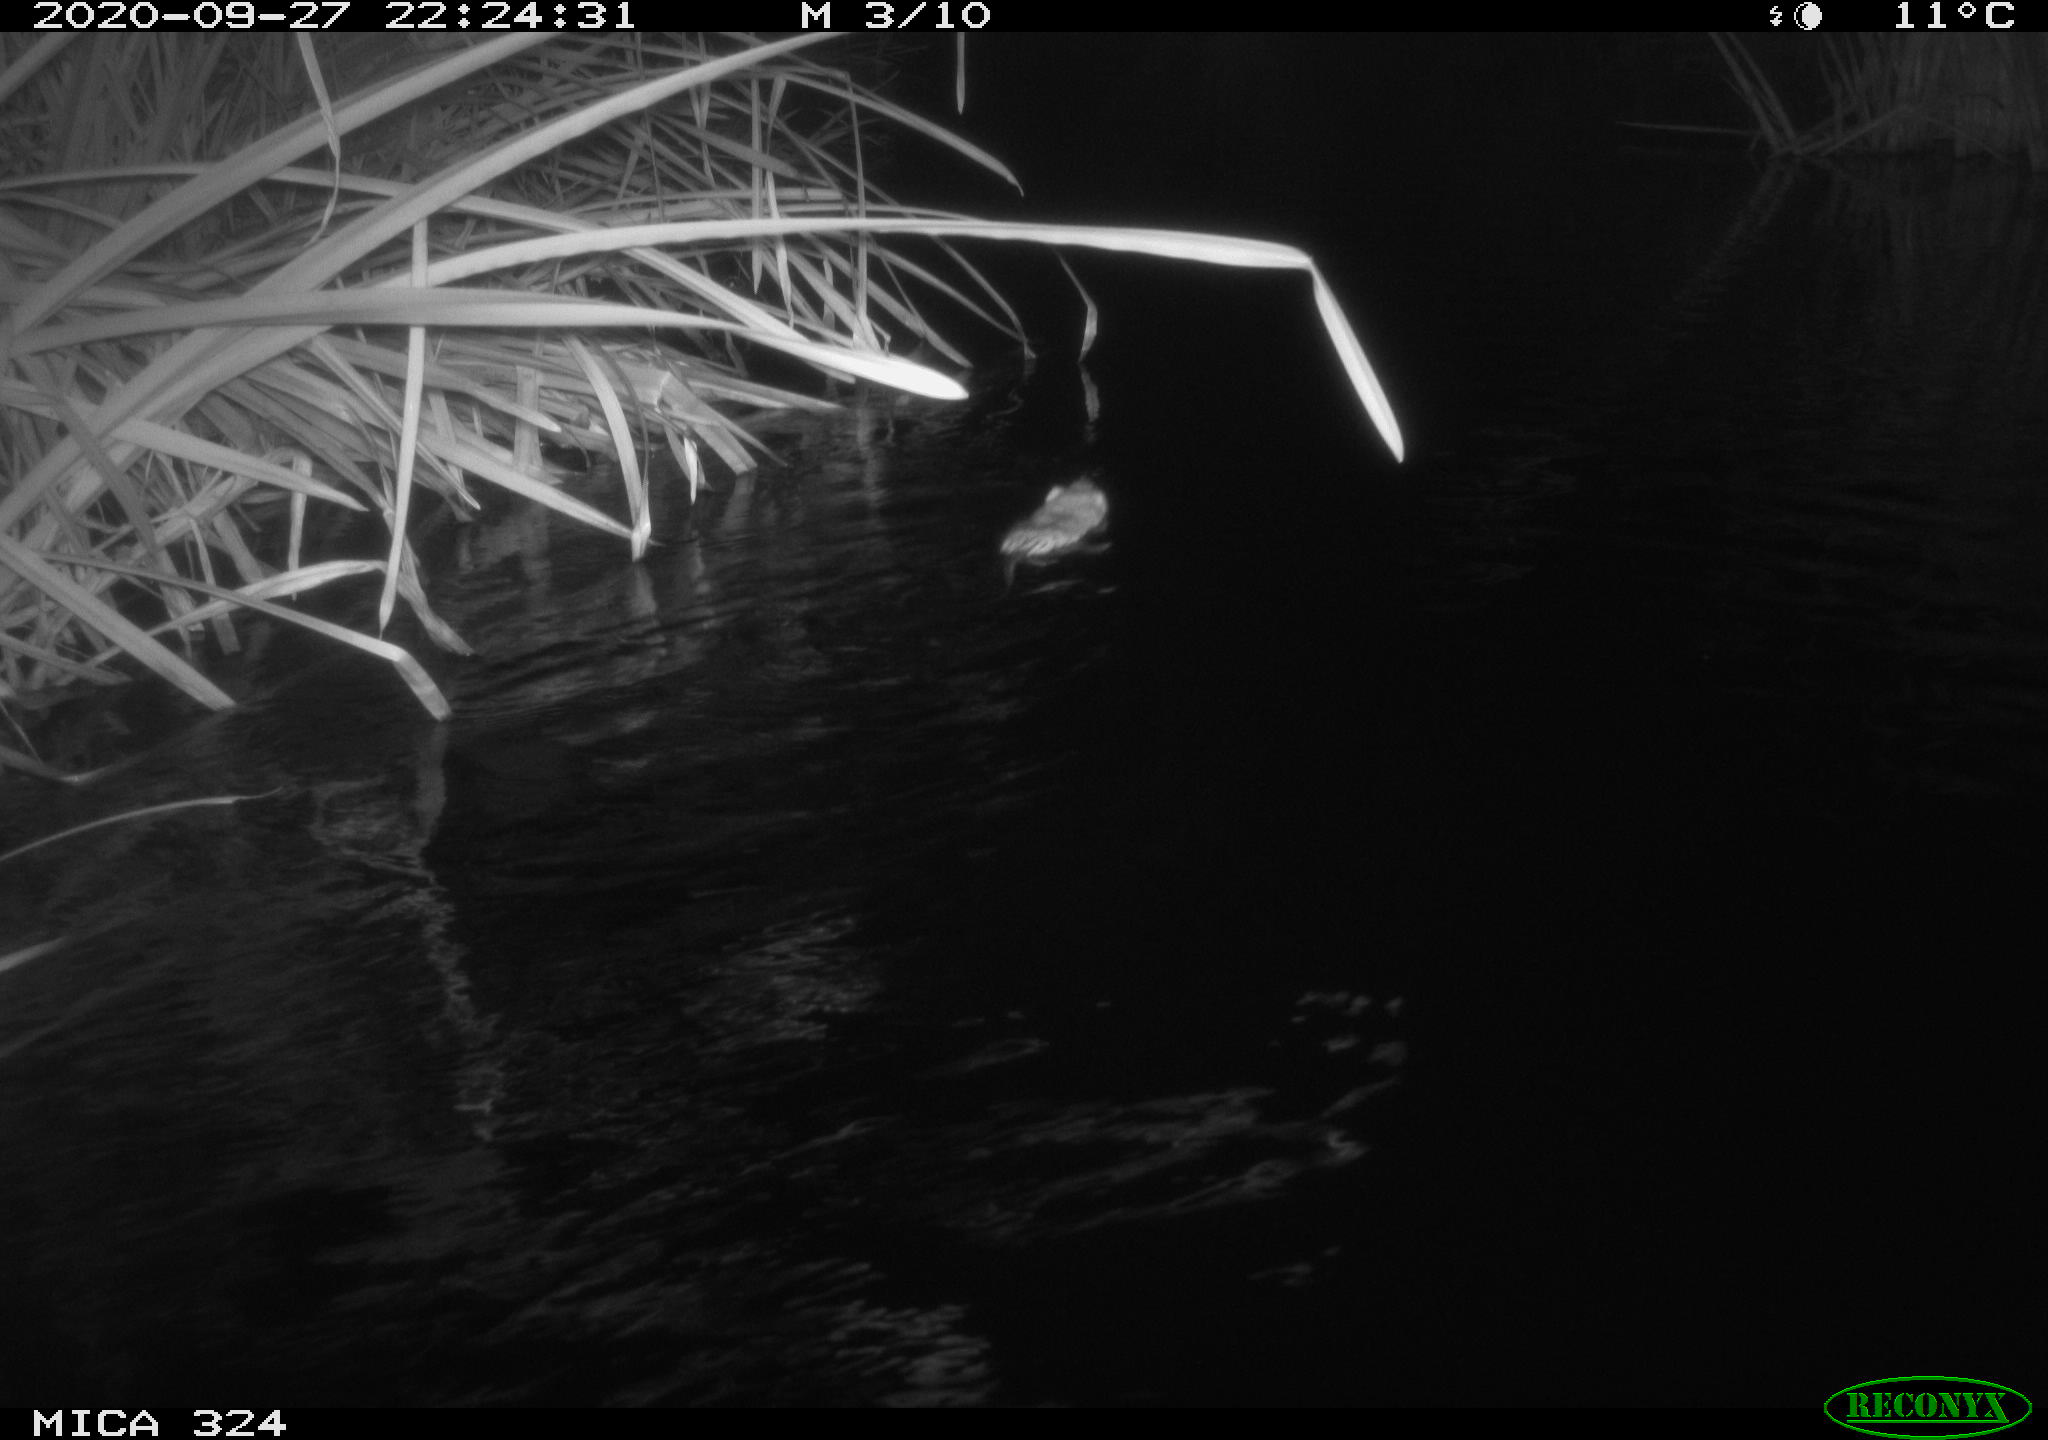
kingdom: Animalia
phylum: Chordata
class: Mammalia
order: Rodentia
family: Cricetidae
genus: Ondatra
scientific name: Ondatra zibethicus
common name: Muskrat
